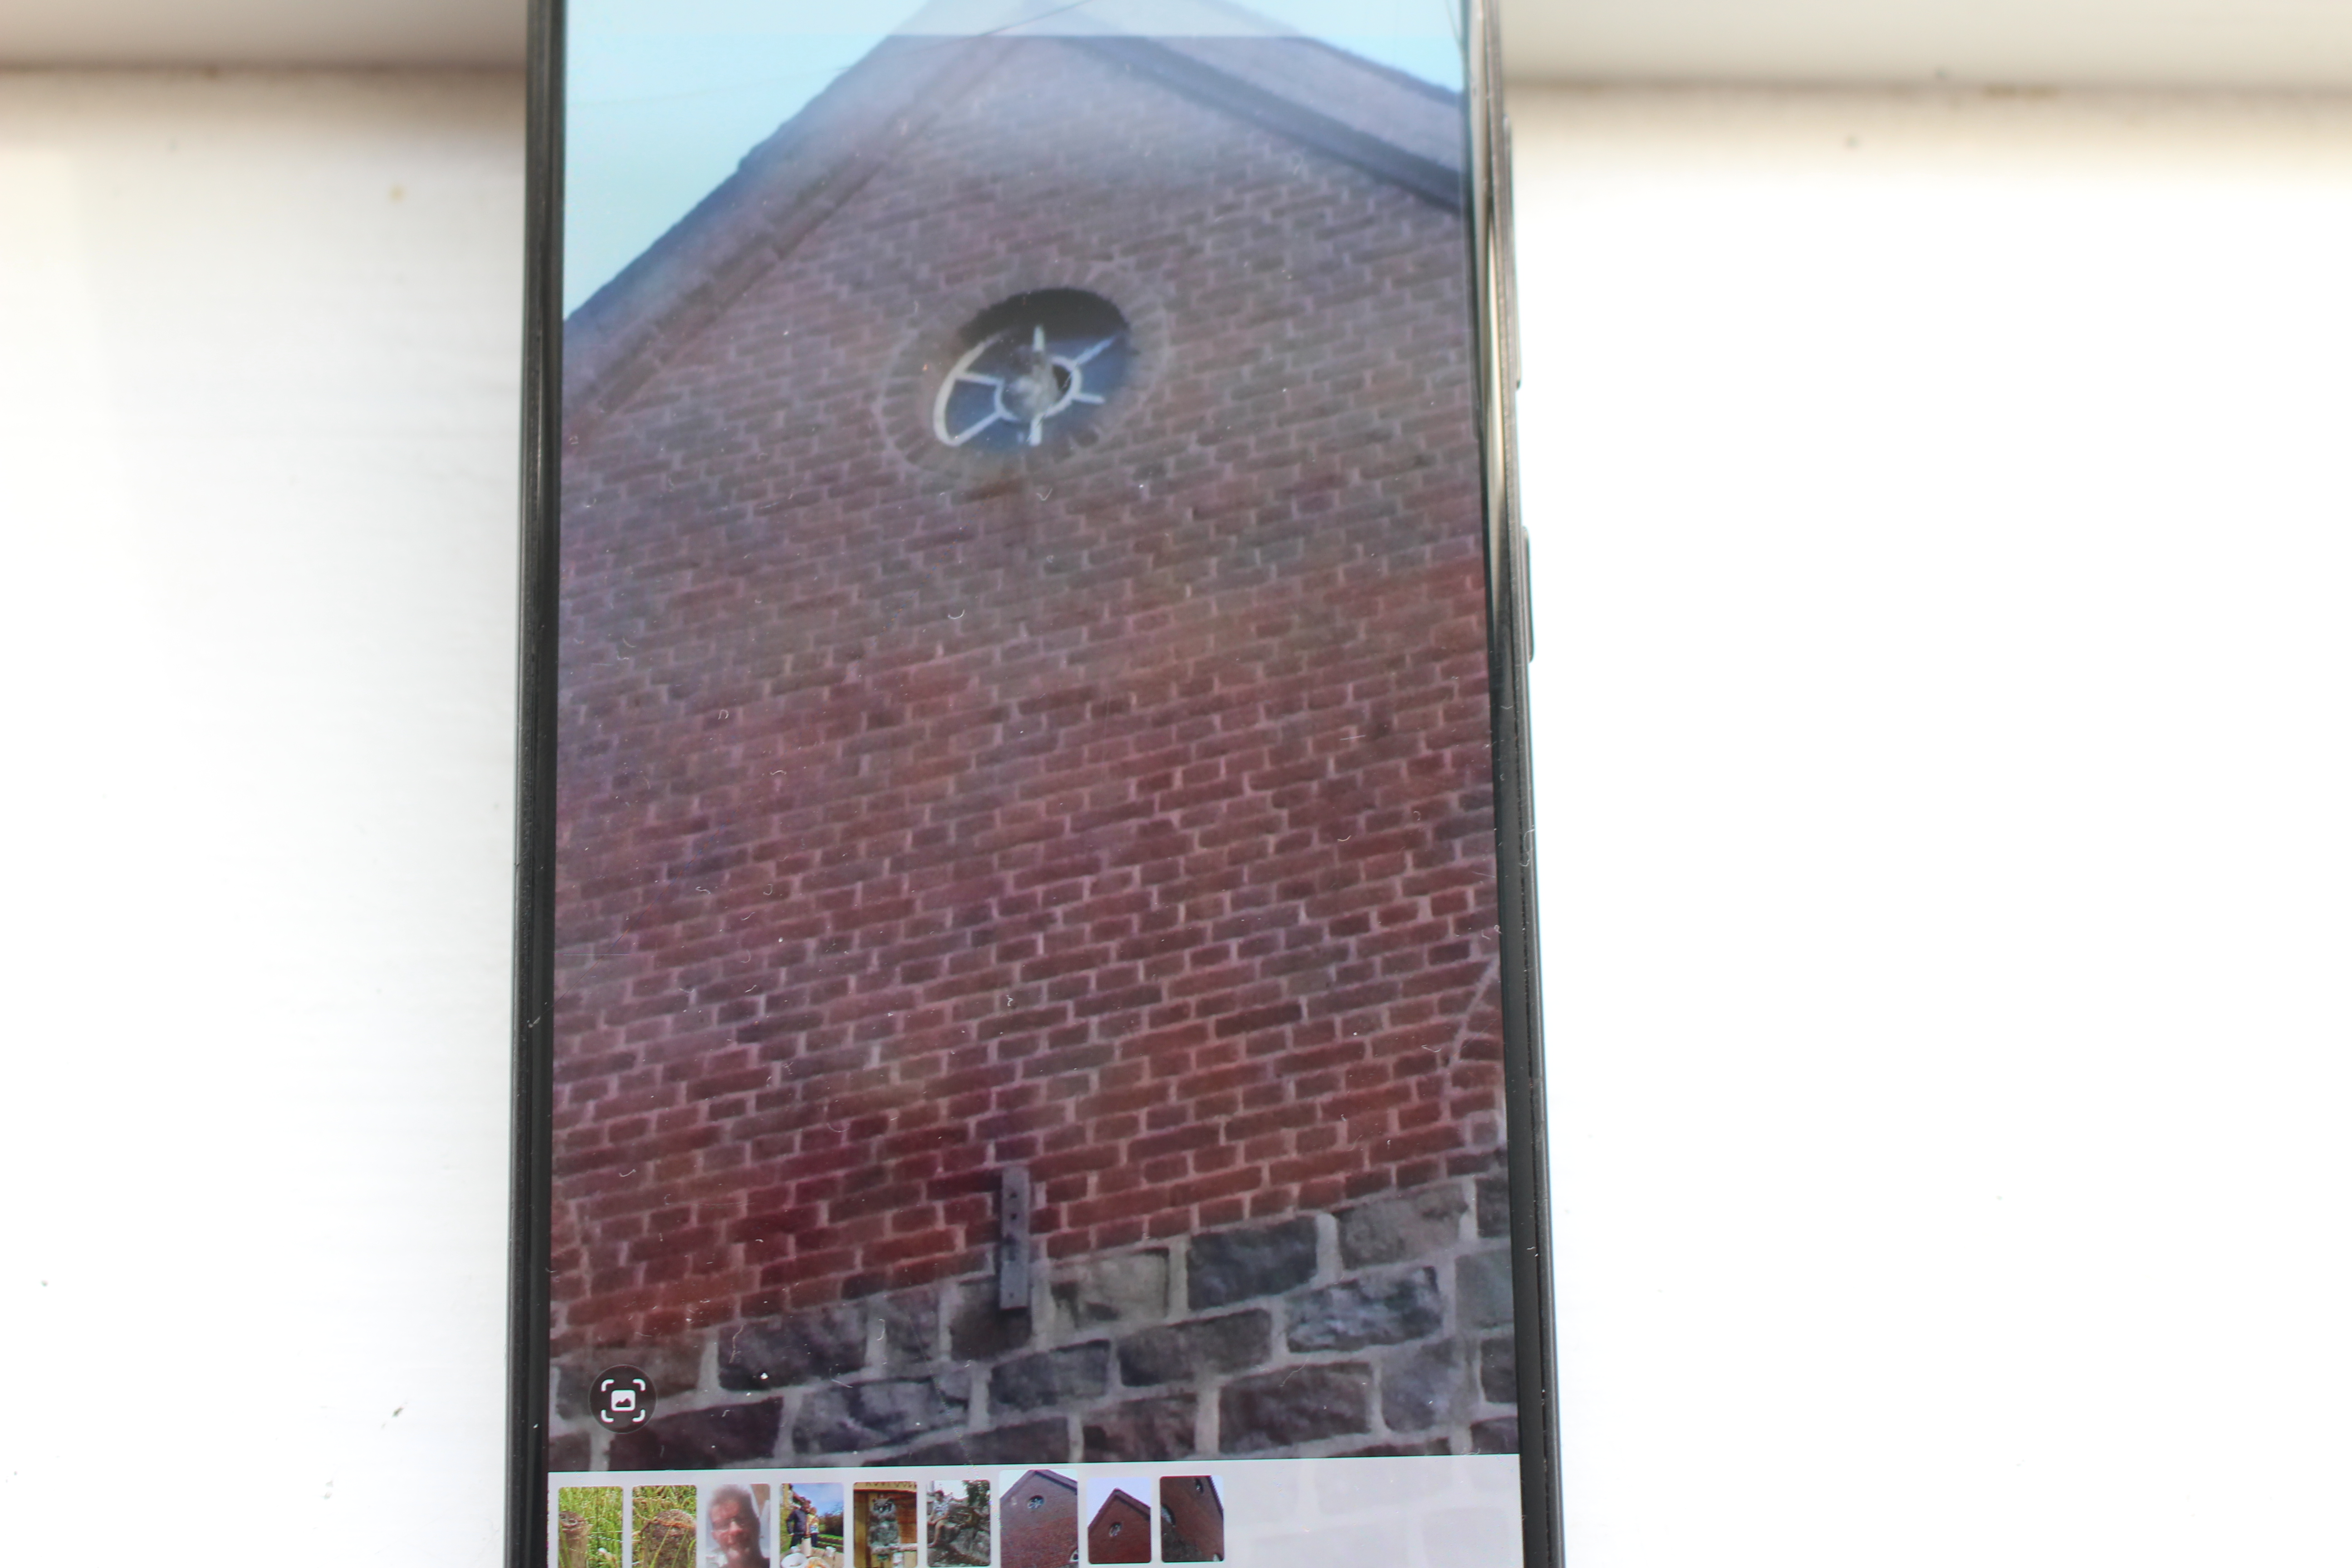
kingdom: Animalia
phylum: Chordata
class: Aves
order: Strigiformes
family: Strigidae
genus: Strix
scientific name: Strix aluco
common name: Natugle
